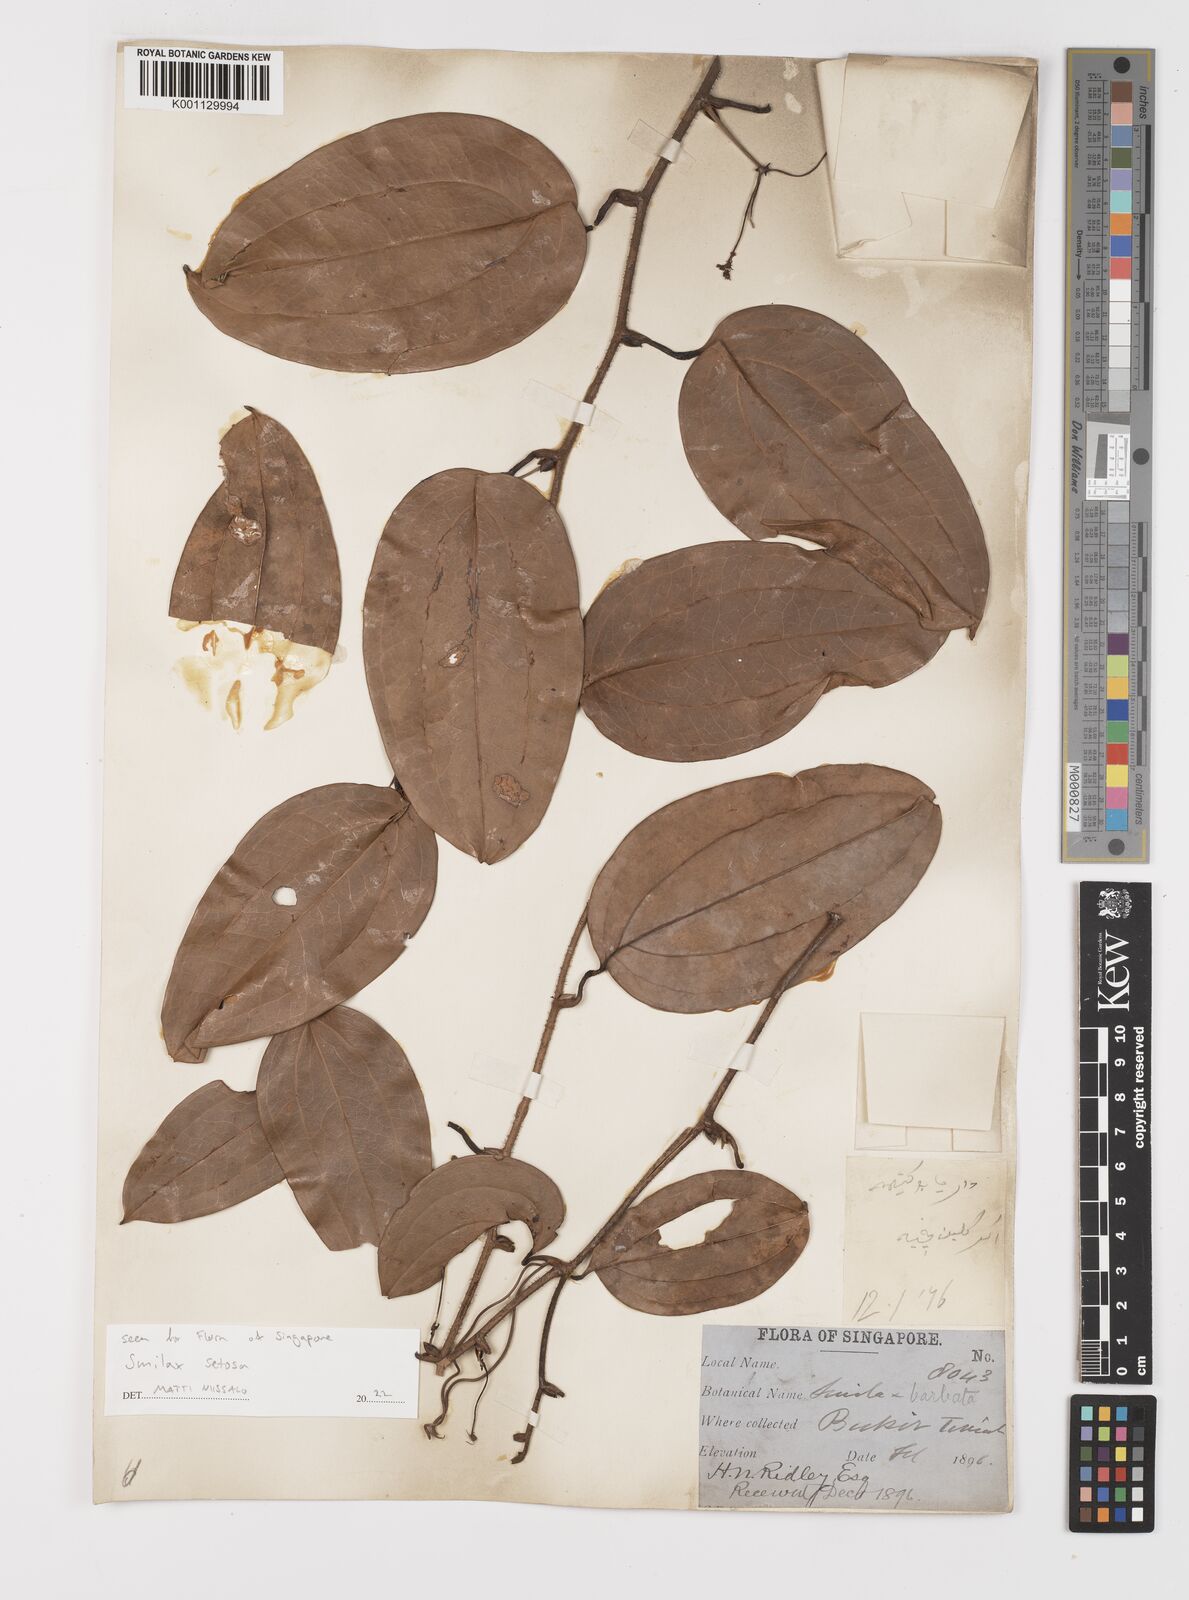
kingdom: Plantae
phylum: Tracheophyta
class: Liliopsida
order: Liliales
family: Smilacaceae
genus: Smilax
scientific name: Smilax setosa
